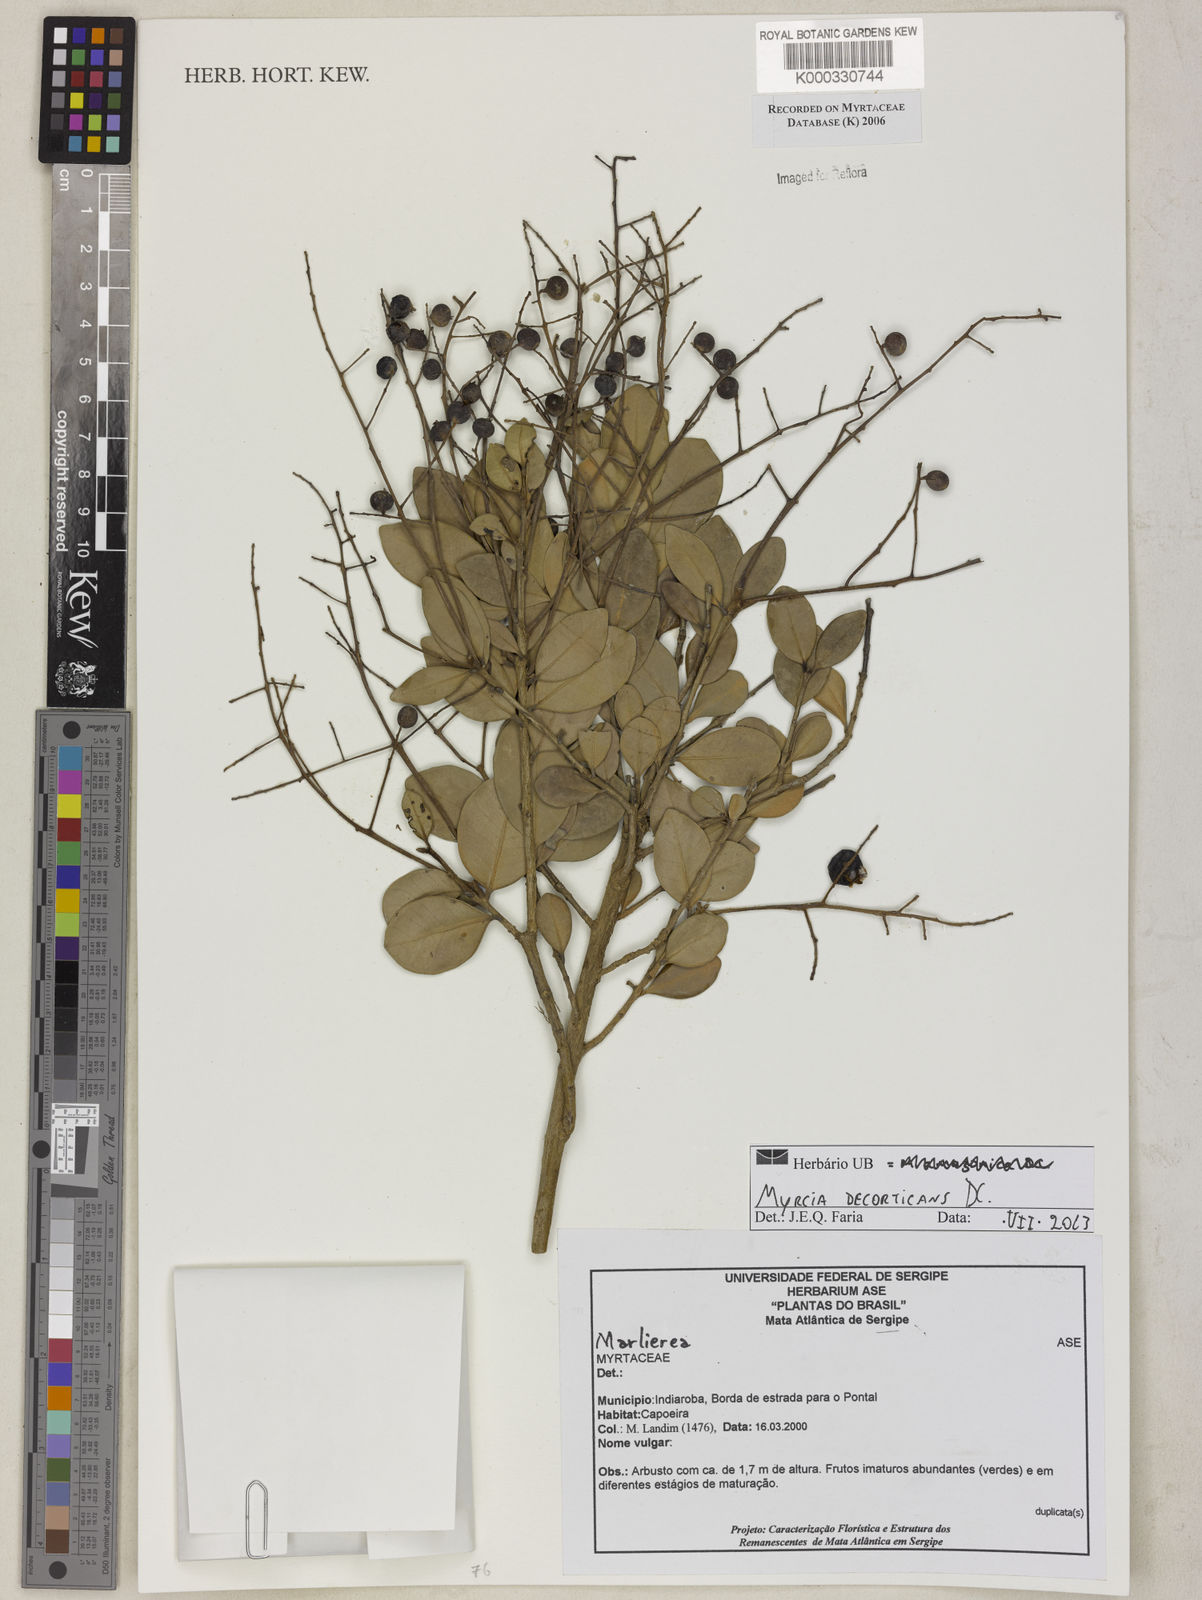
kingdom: Plantae
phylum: Tracheophyta
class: Magnoliopsida
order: Myrtales
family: Myrtaceae
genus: Marlierea
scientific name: Marlierea
